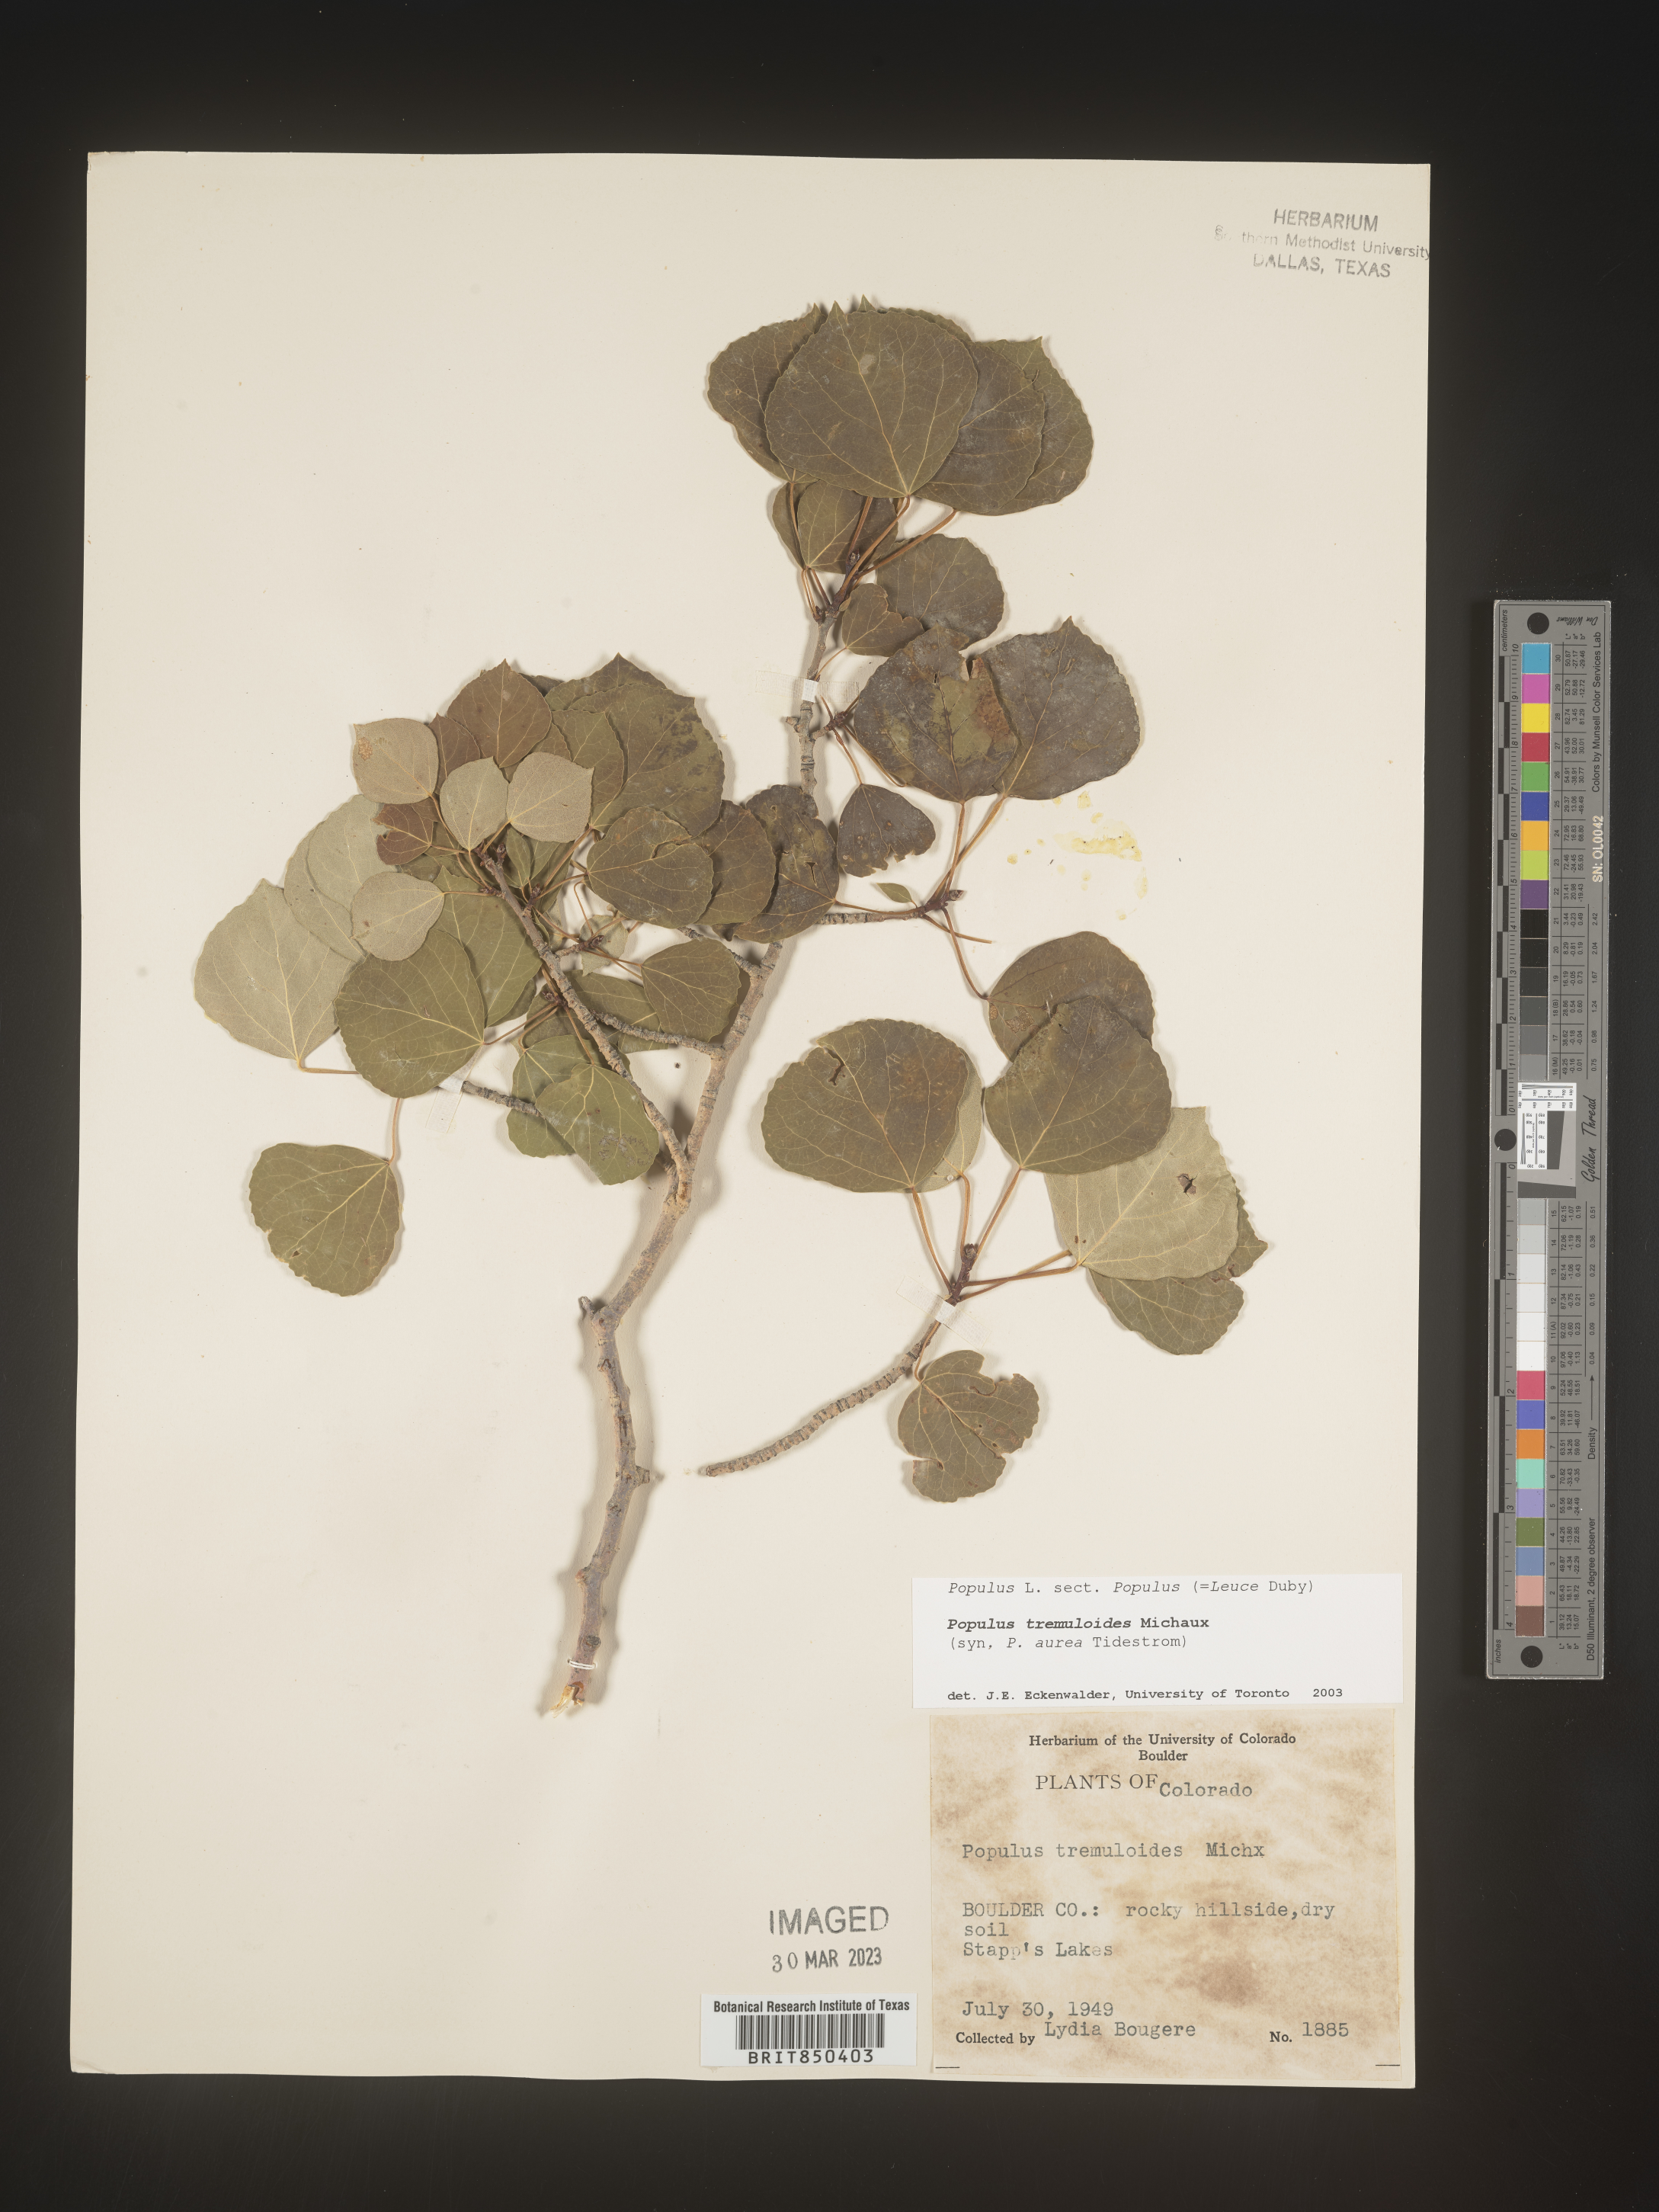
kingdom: Plantae
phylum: Tracheophyta
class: Magnoliopsida
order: Malpighiales
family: Salicaceae
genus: Populus
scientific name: Populus tremuloides
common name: Quaking aspen
